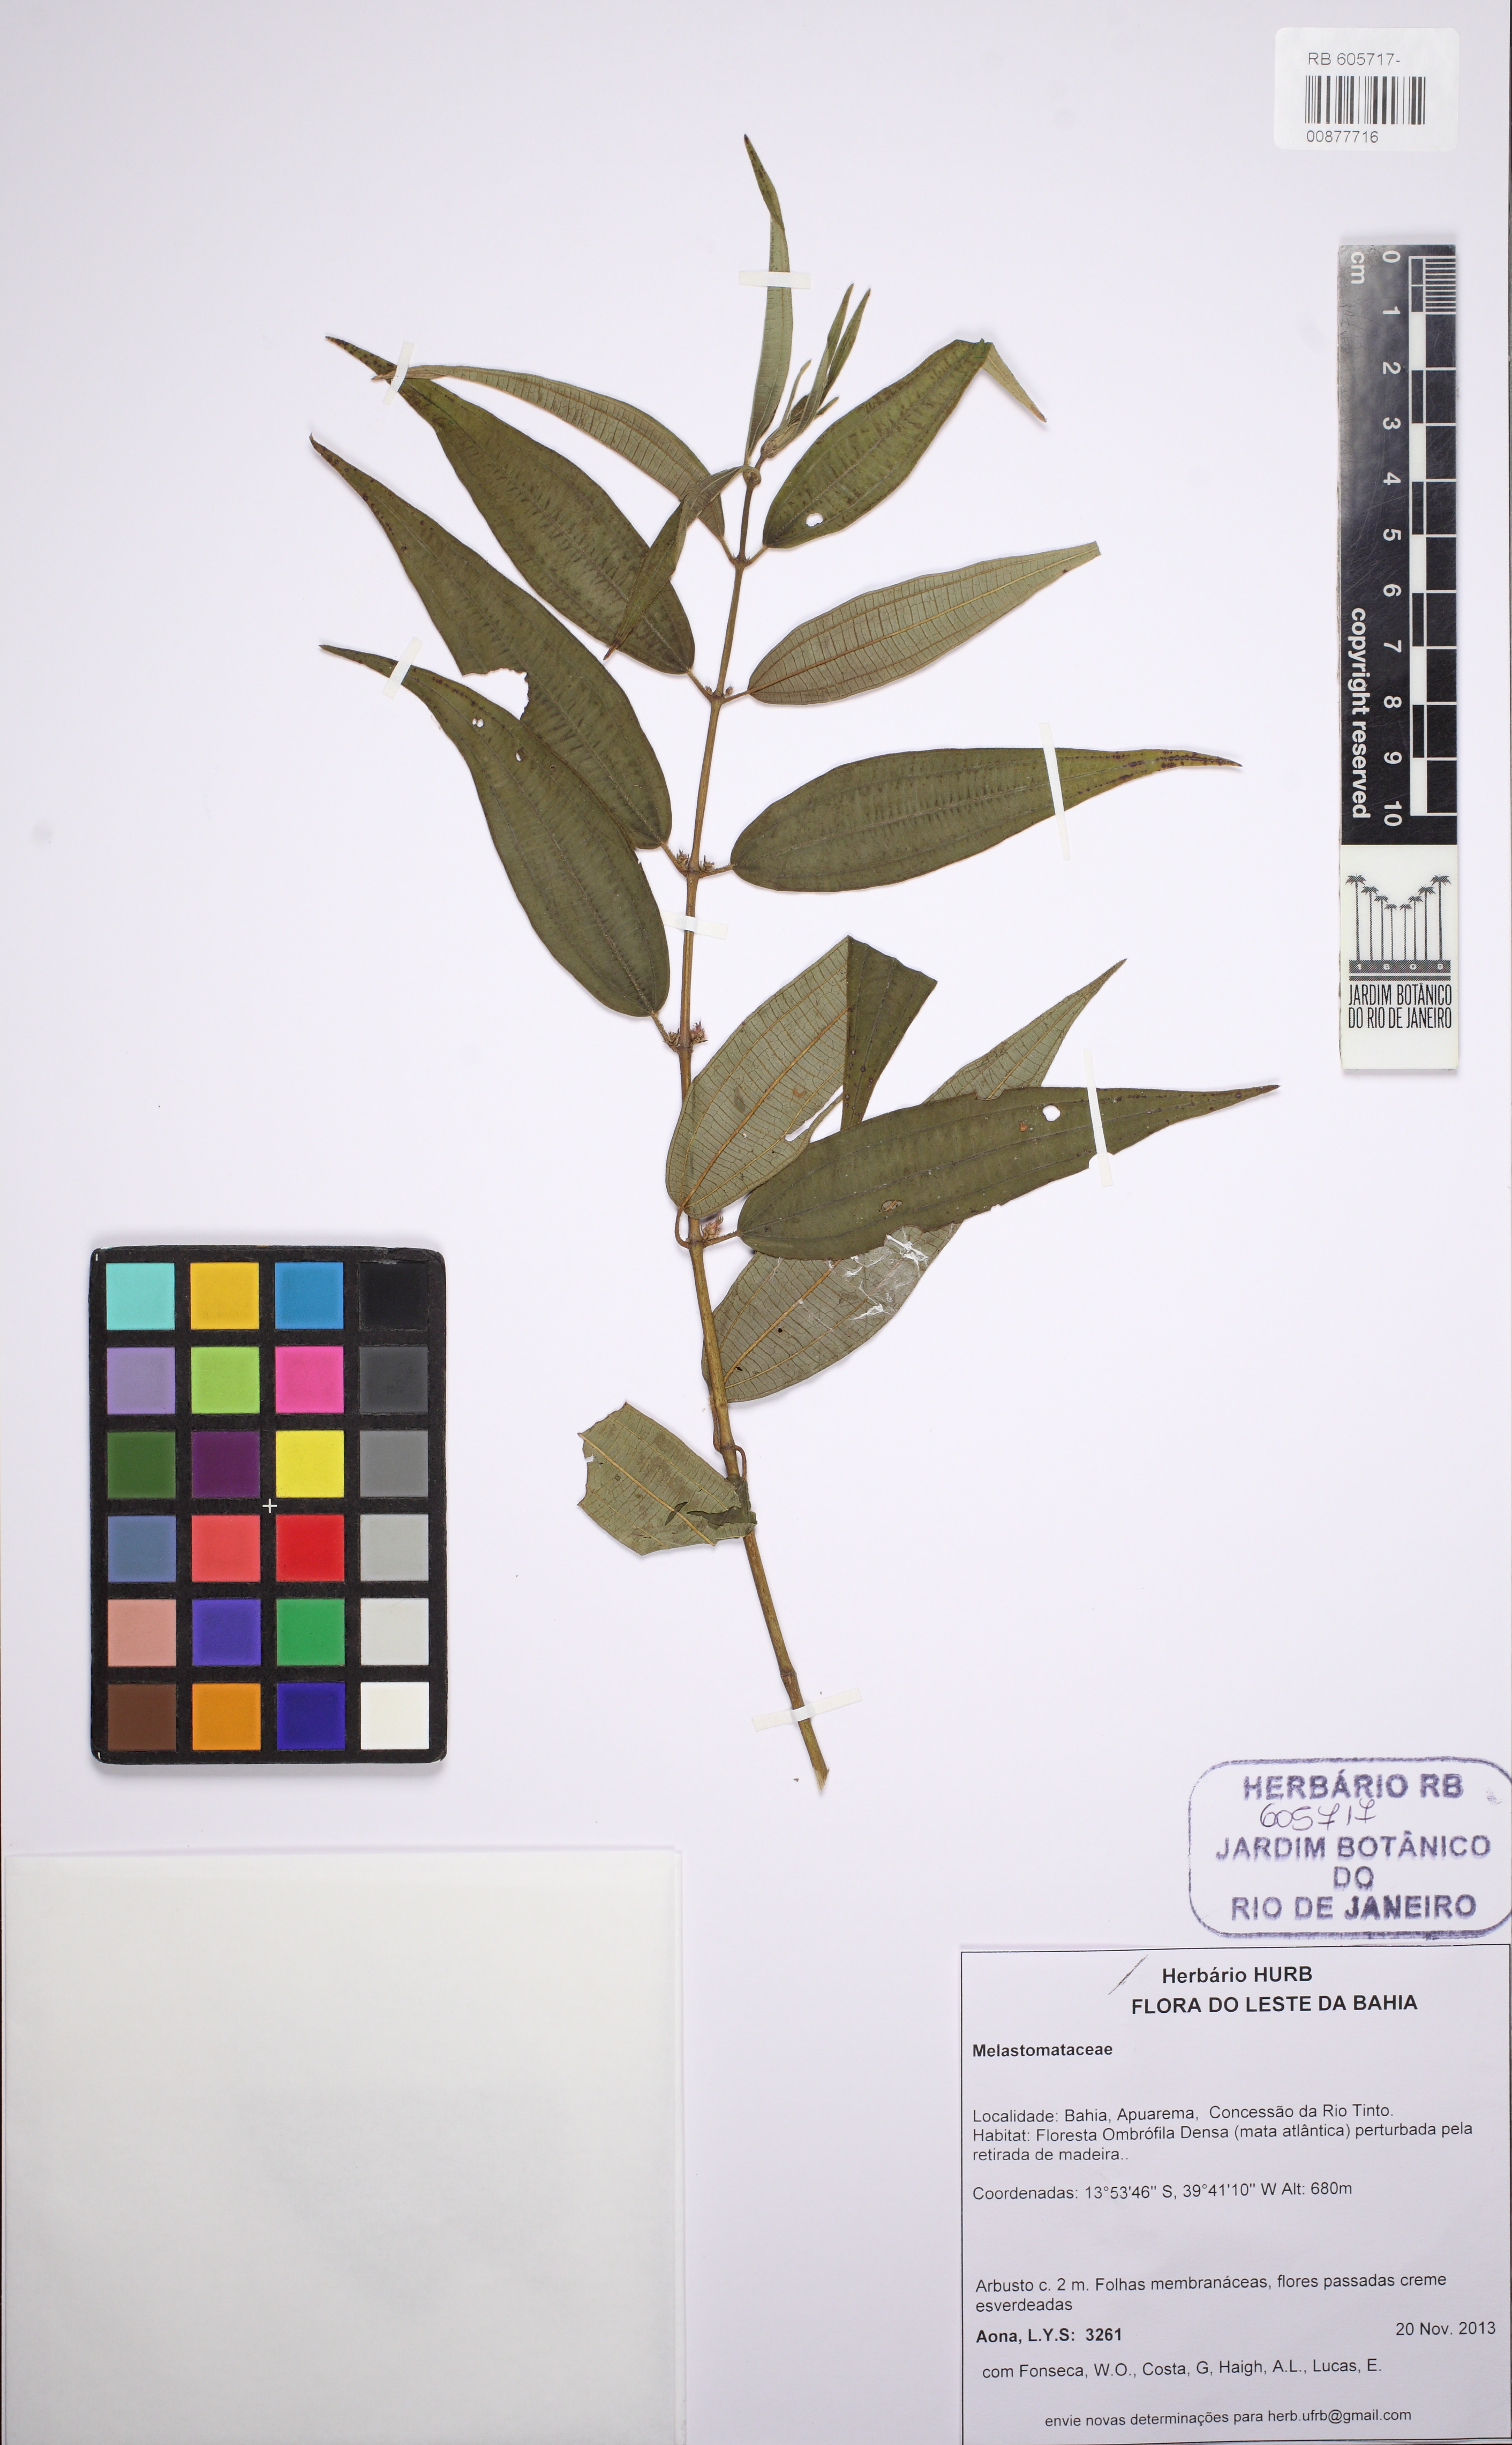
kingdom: Plantae
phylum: Tracheophyta
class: Magnoliopsida
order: Myrtales
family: Melastomataceae
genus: Tibouchina
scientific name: Tibouchina
